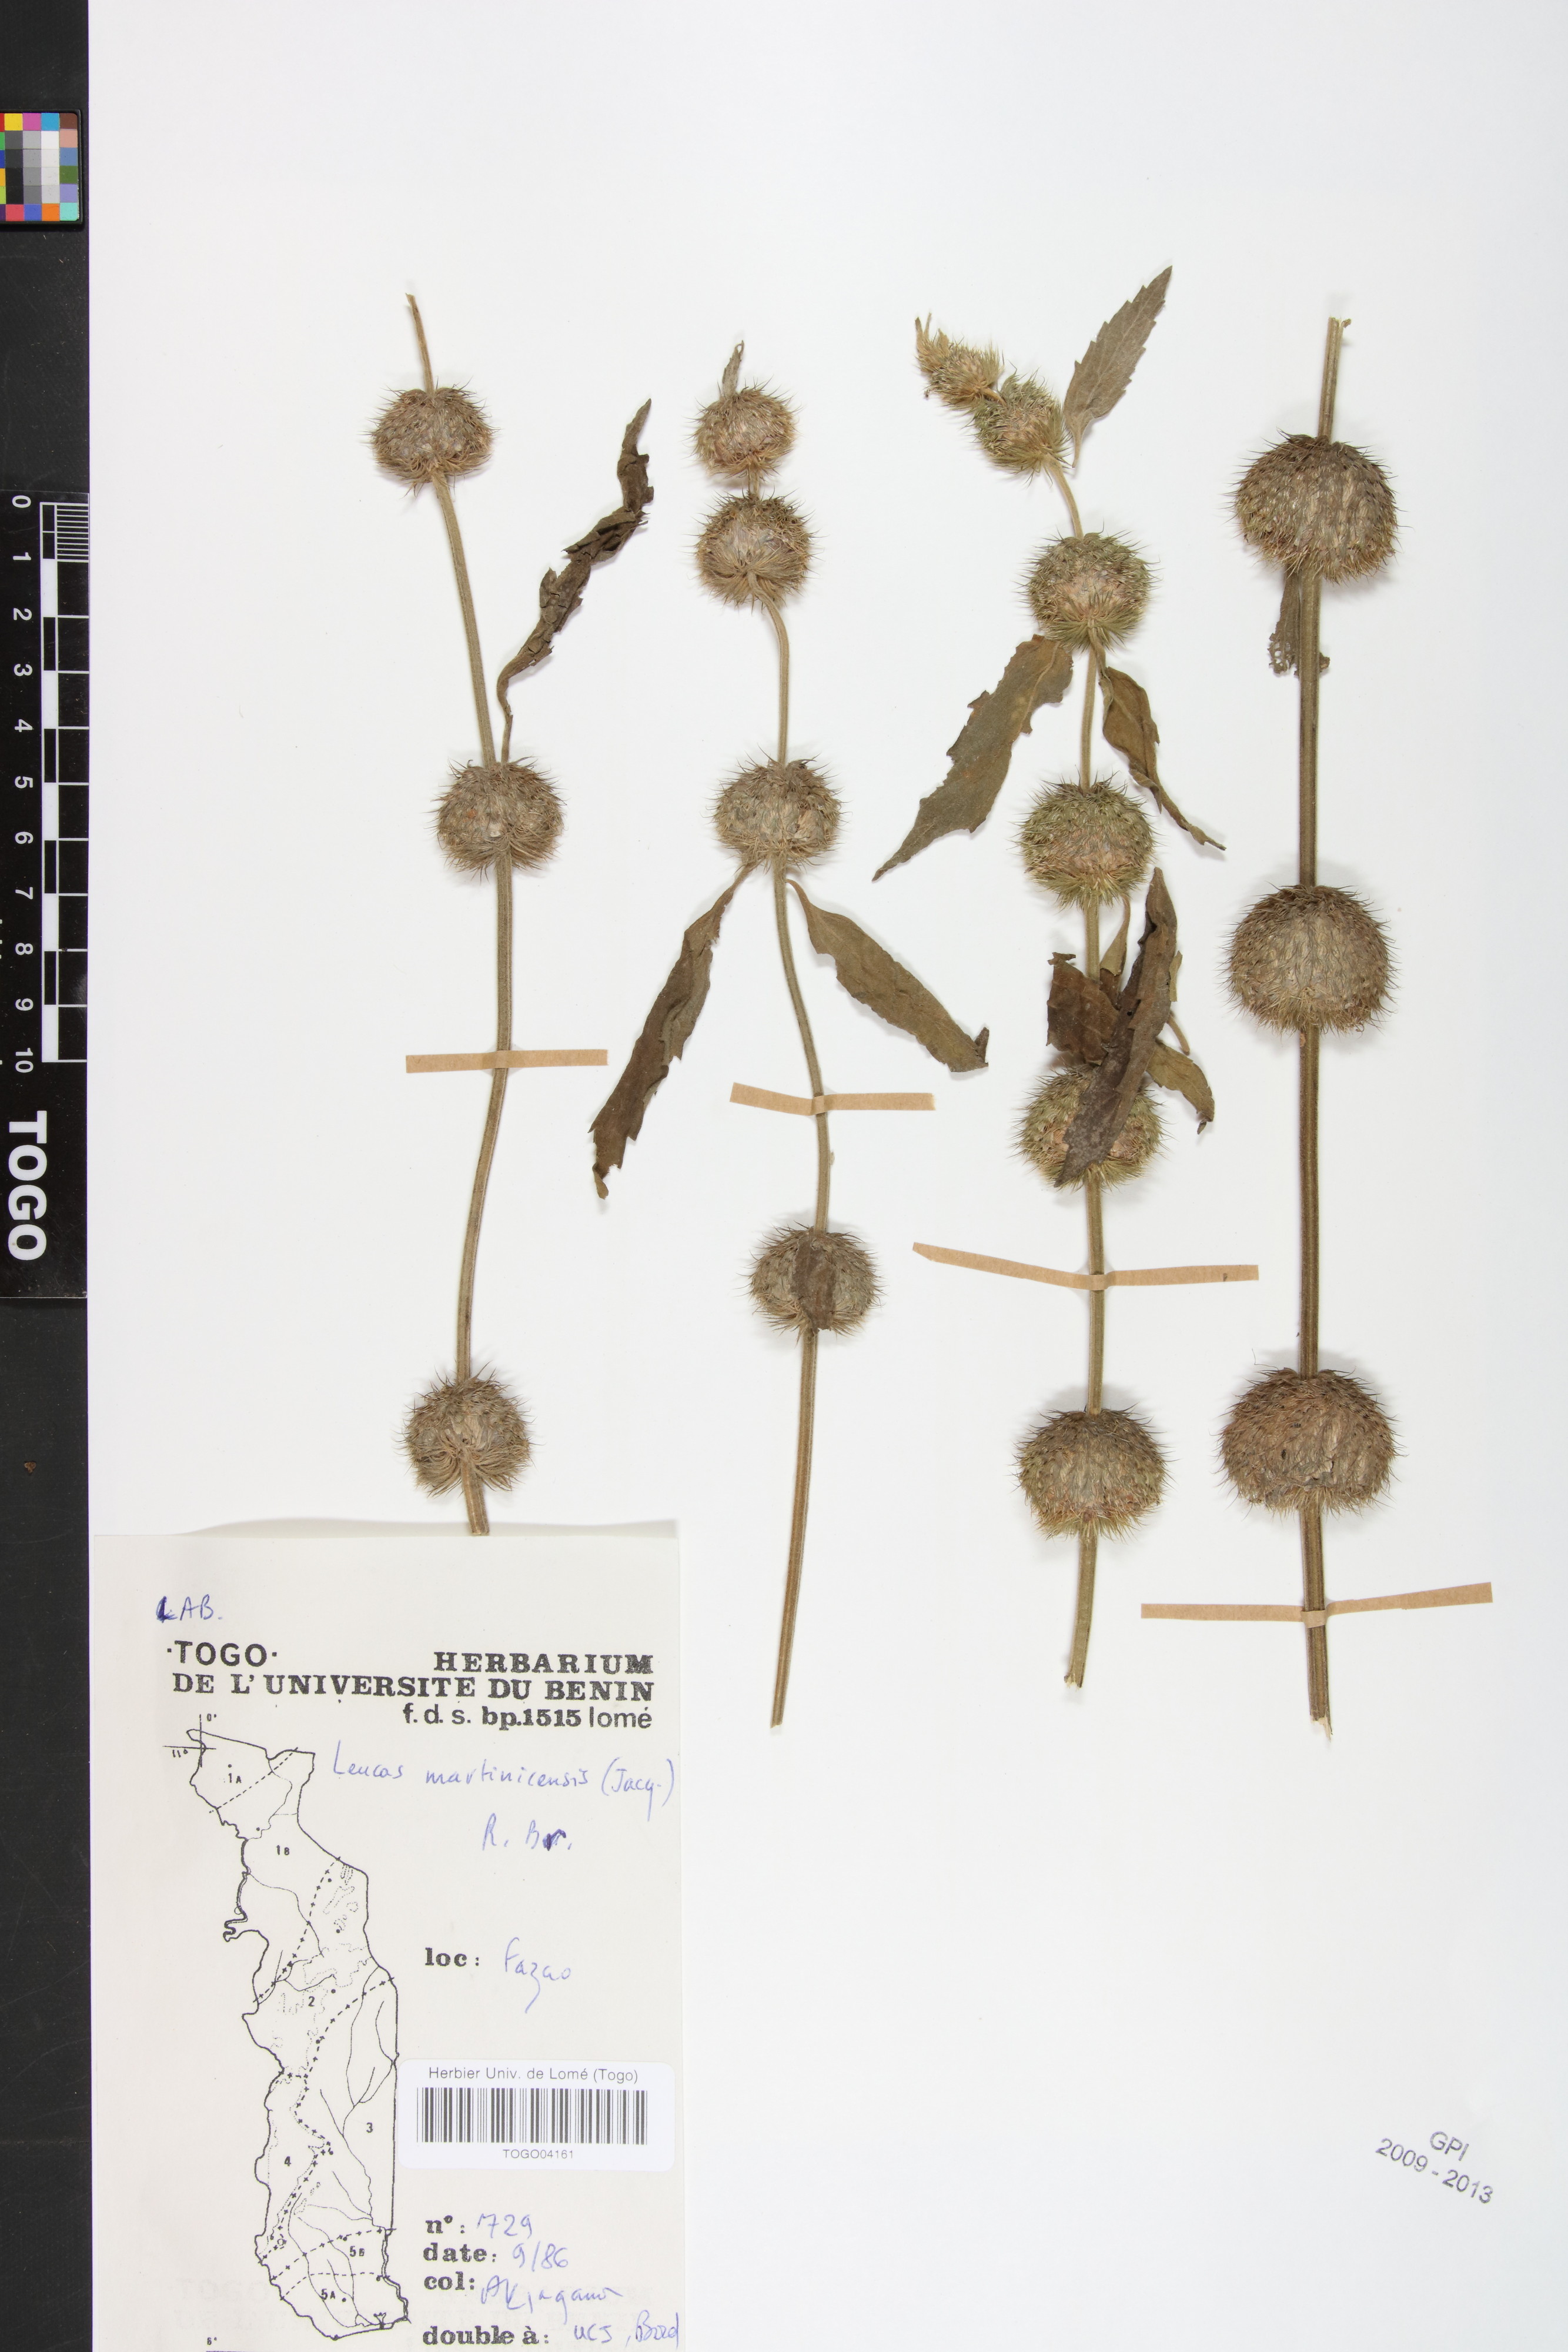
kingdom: Plantae
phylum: Tracheophyta
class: Magnoliopsida
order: Lamiales
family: Lamiaceae
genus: Leucas
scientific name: Leucas martinicensis
